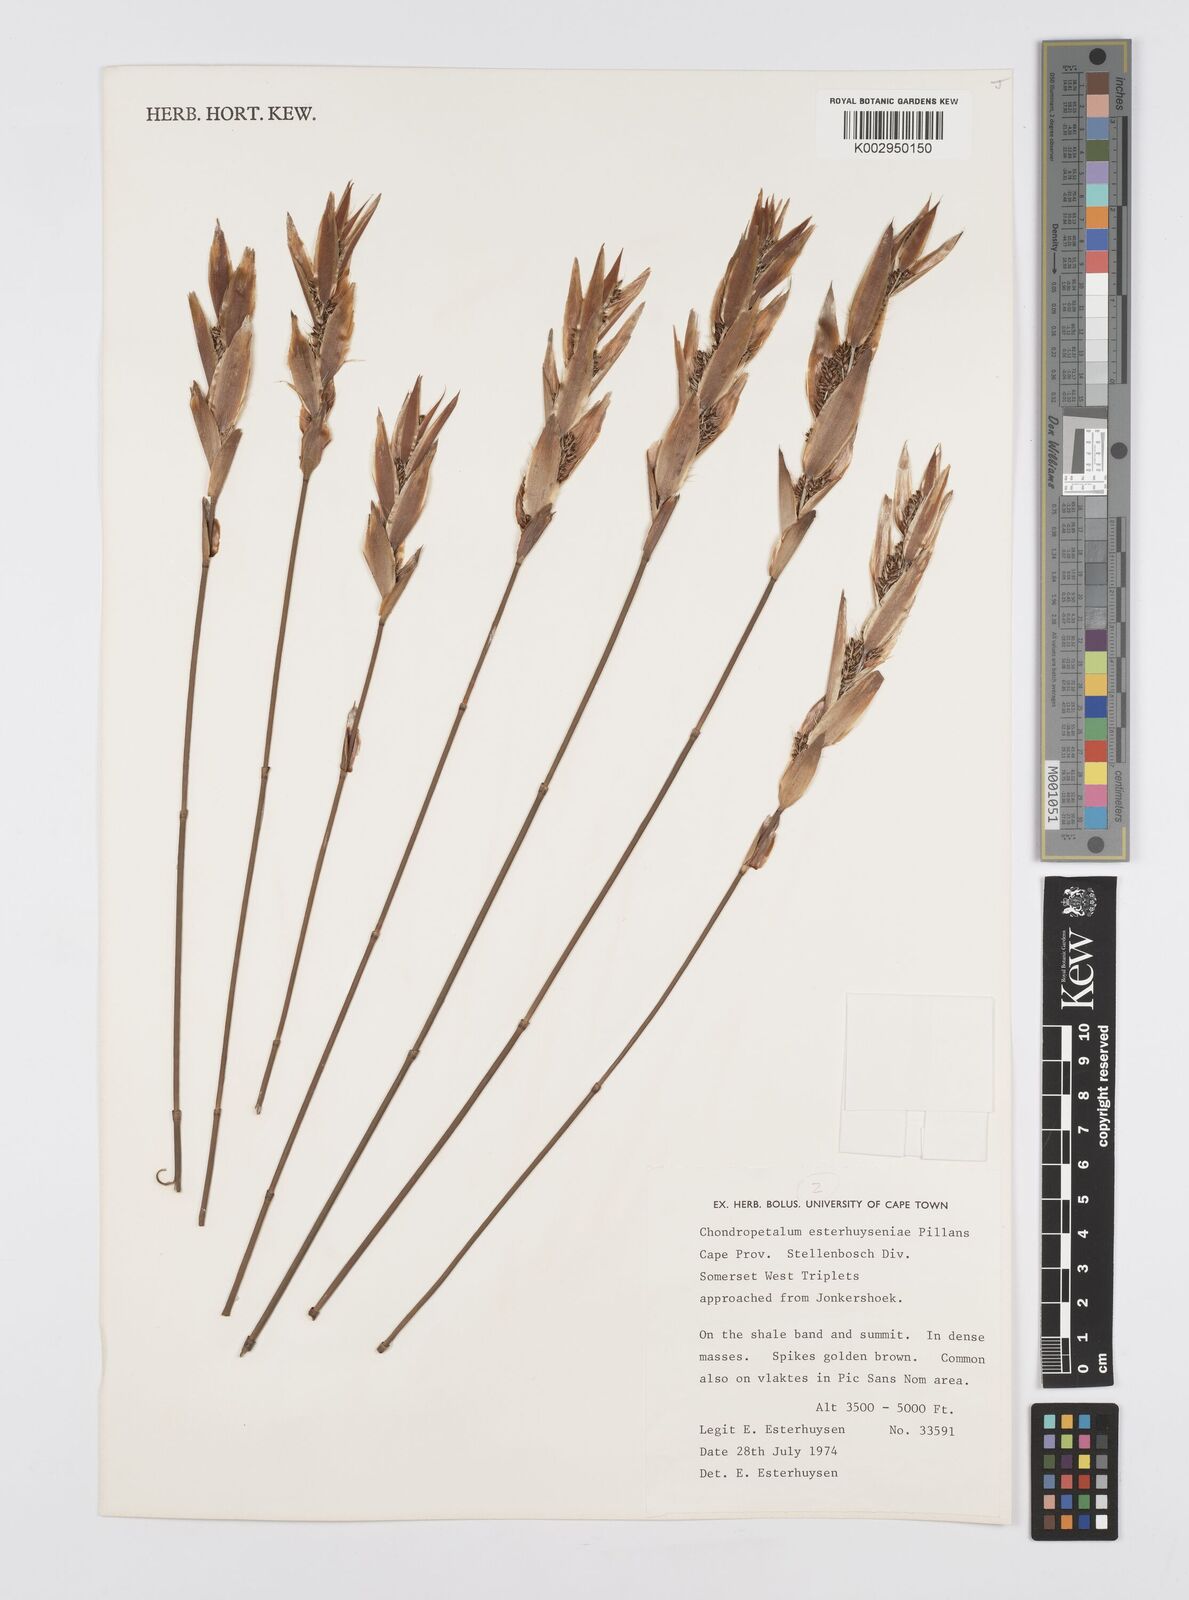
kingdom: Plantae
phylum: Tracheophyta
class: Liliopsida
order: Poales
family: Restionaceae
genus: Askidiosperma
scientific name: Askidiosperma esterhuyseniae
